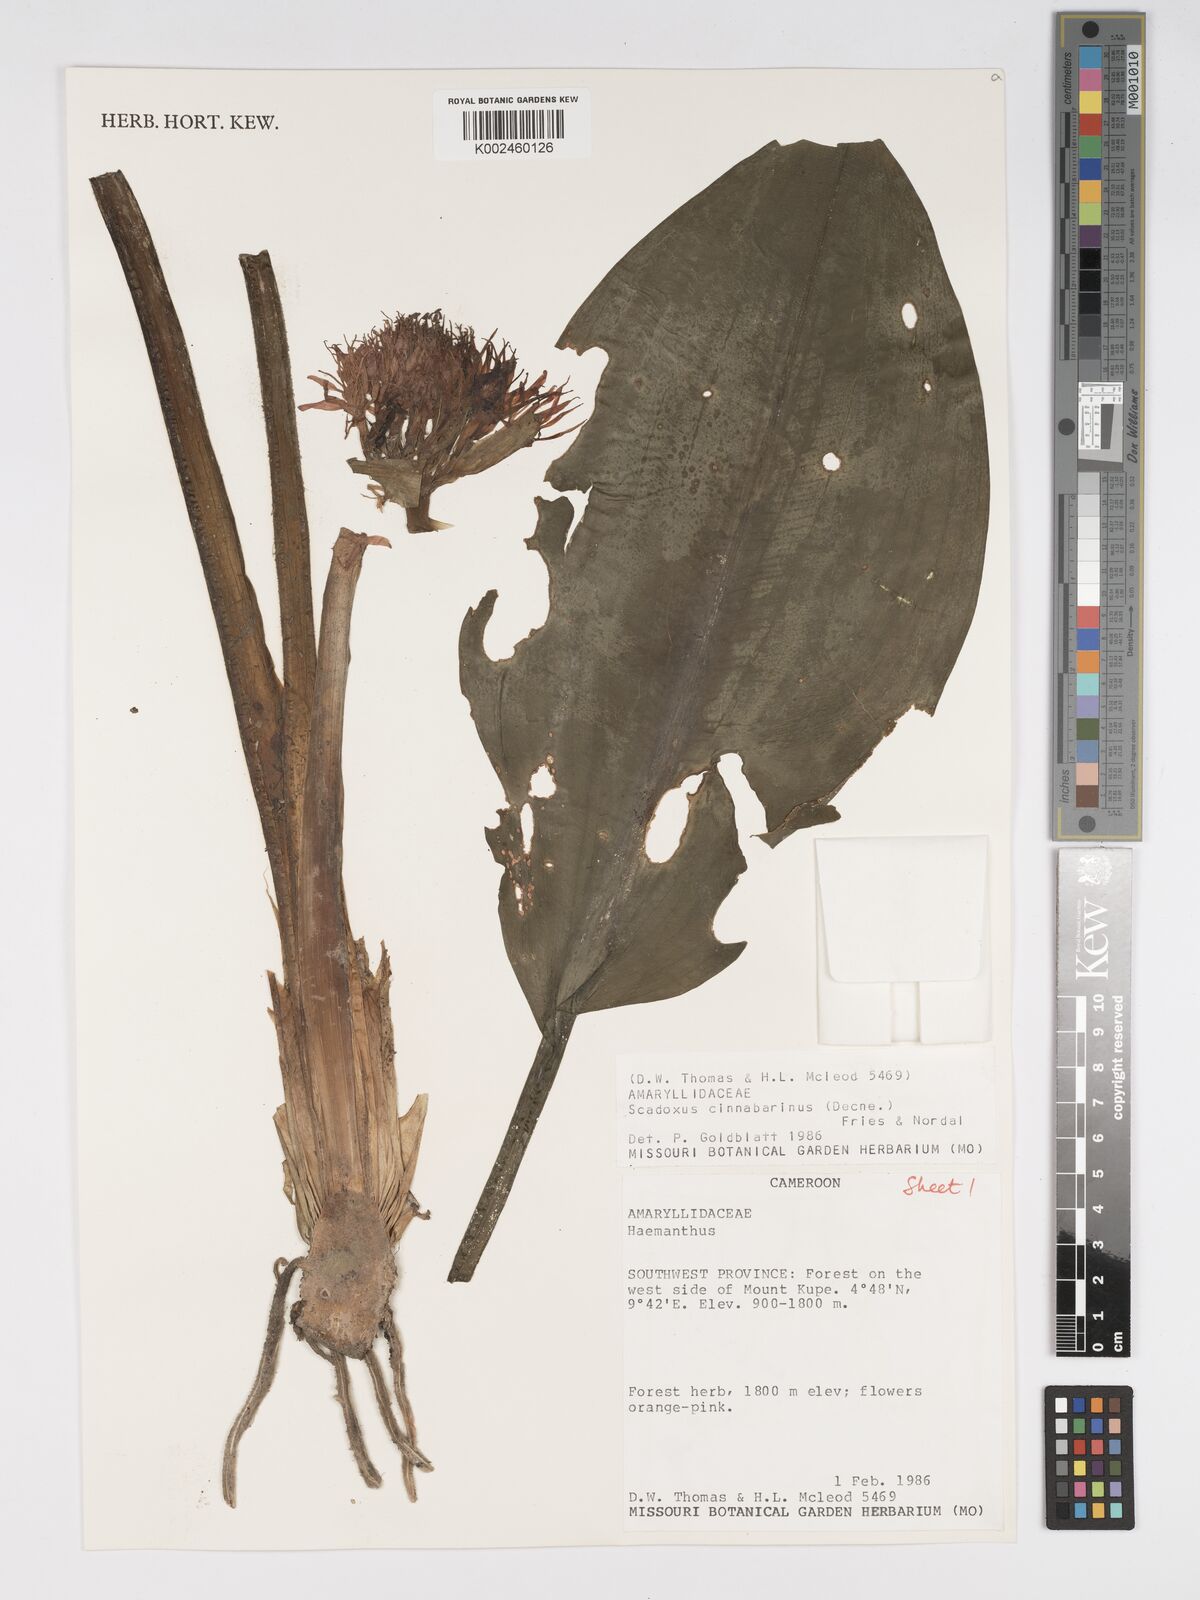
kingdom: Plantae
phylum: Tracheophyta
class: Liliopsida
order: Asparagales
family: Amaryllidaceae
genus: Scadoxus
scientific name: Scadoxus cinnabarinus
